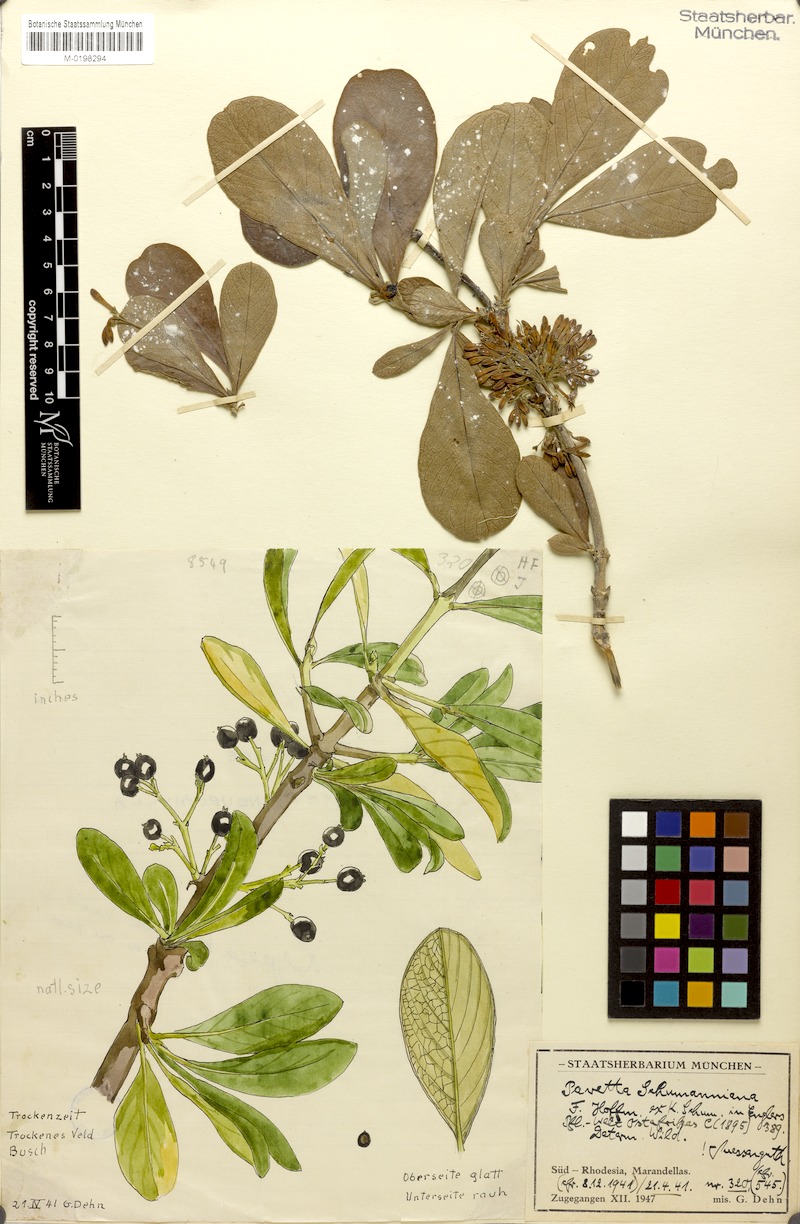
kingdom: Plantae
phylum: Tracheophyta
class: Magnoliopsida
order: Gentianales
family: Rubiaceae
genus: Pavetta
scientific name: Pavetta schumanniana
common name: Poisonous bride's-bush
